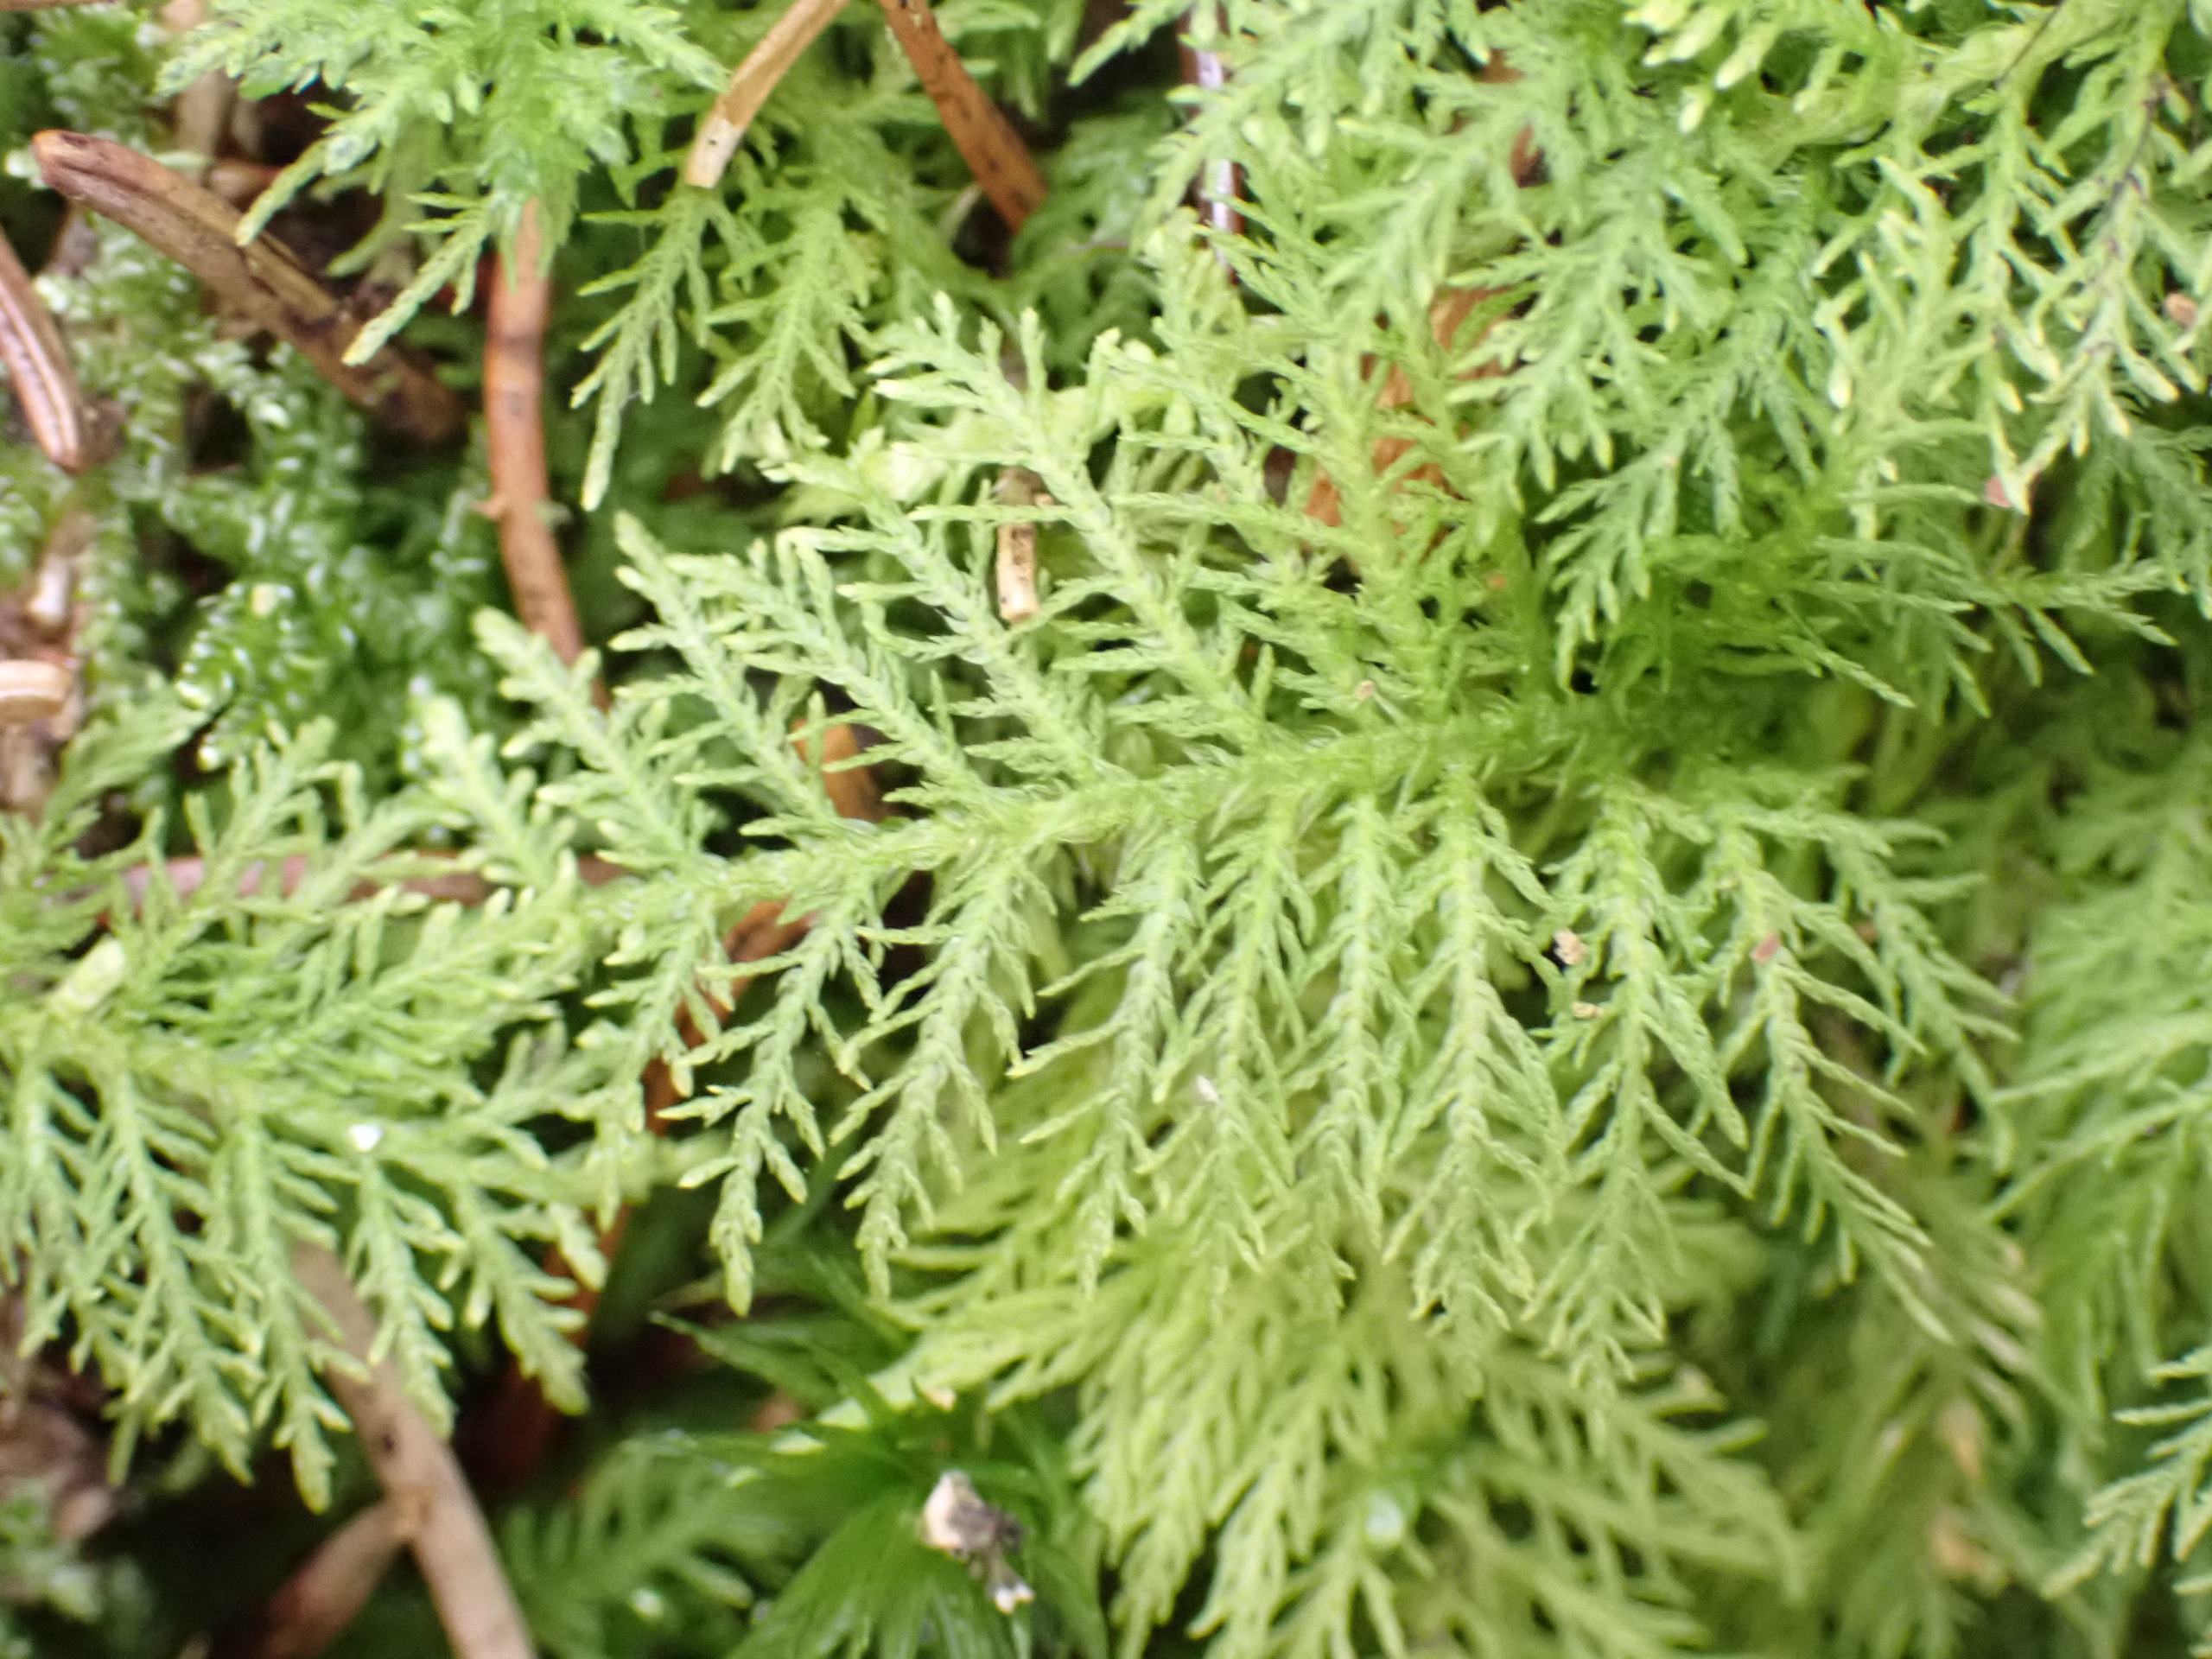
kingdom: Plantae
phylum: Bryophyta
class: Bryopsida
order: Hypnales
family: Thuidiaceae
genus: Thuidium
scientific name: Thuidium tamariscinum
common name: Pryd-bregnemos
